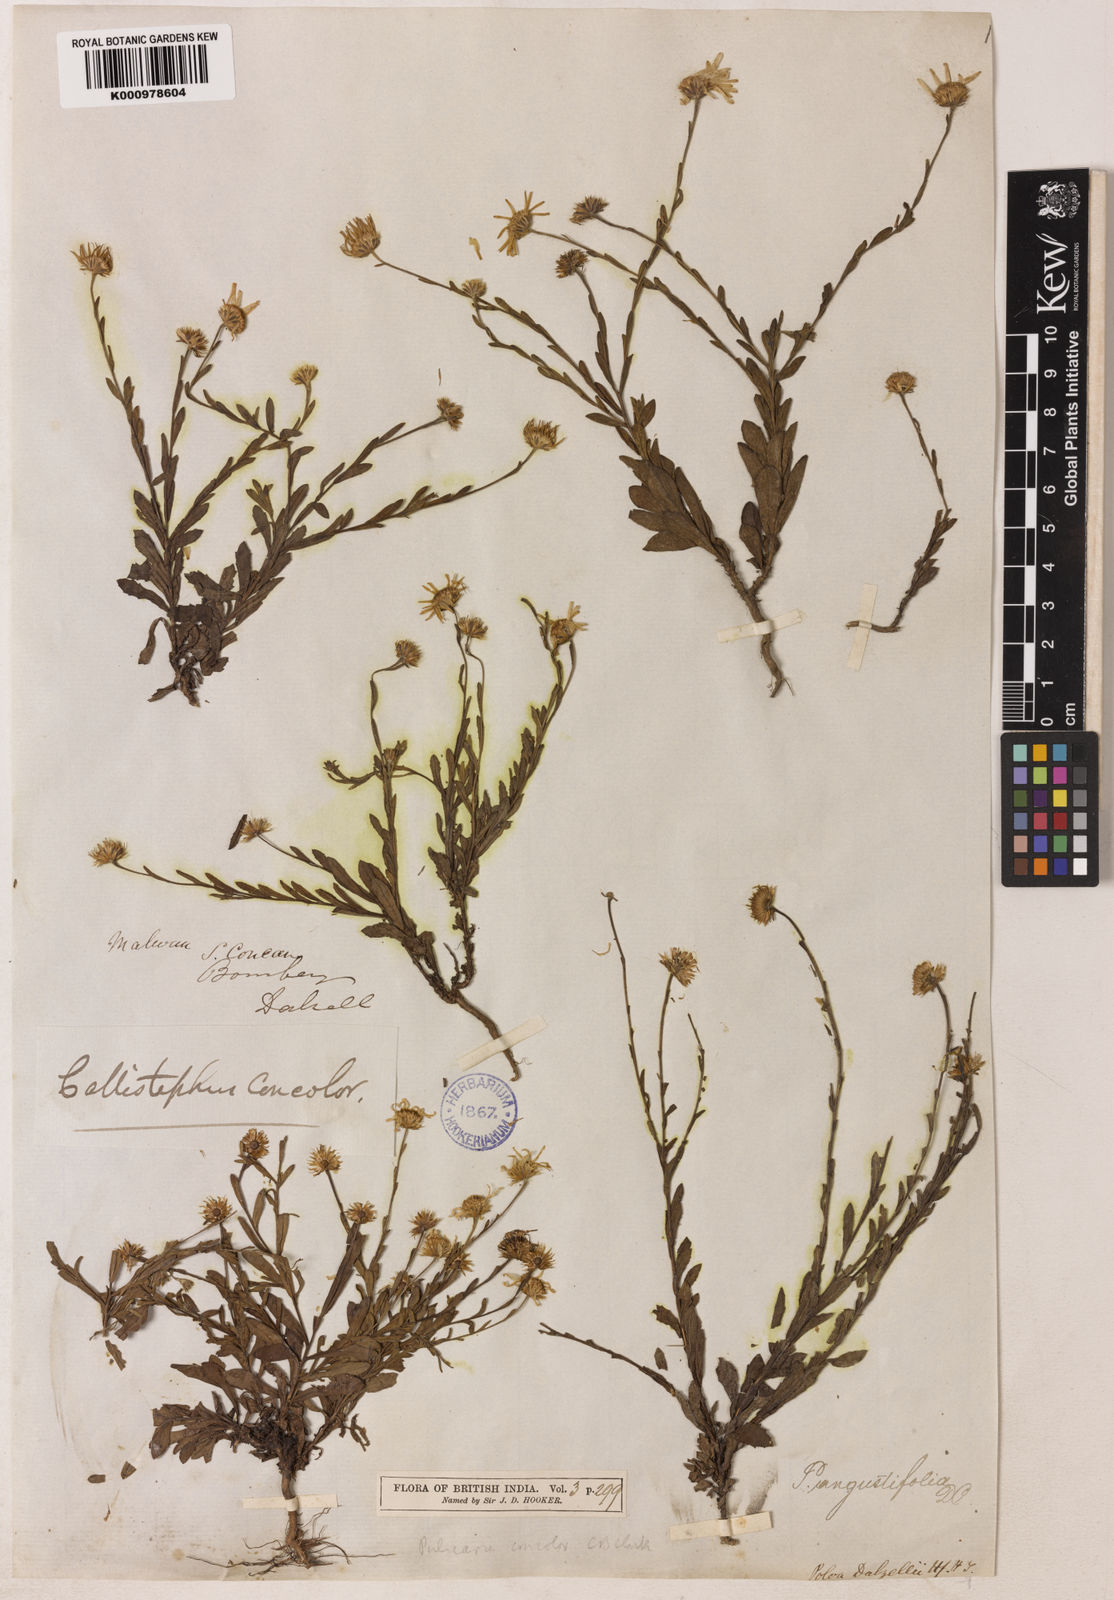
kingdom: Plantae
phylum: Tracheophyta
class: Magnoliopsida
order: Asterales
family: Asteraceae
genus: Pulicaria
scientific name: Pulicaria angustifolia
